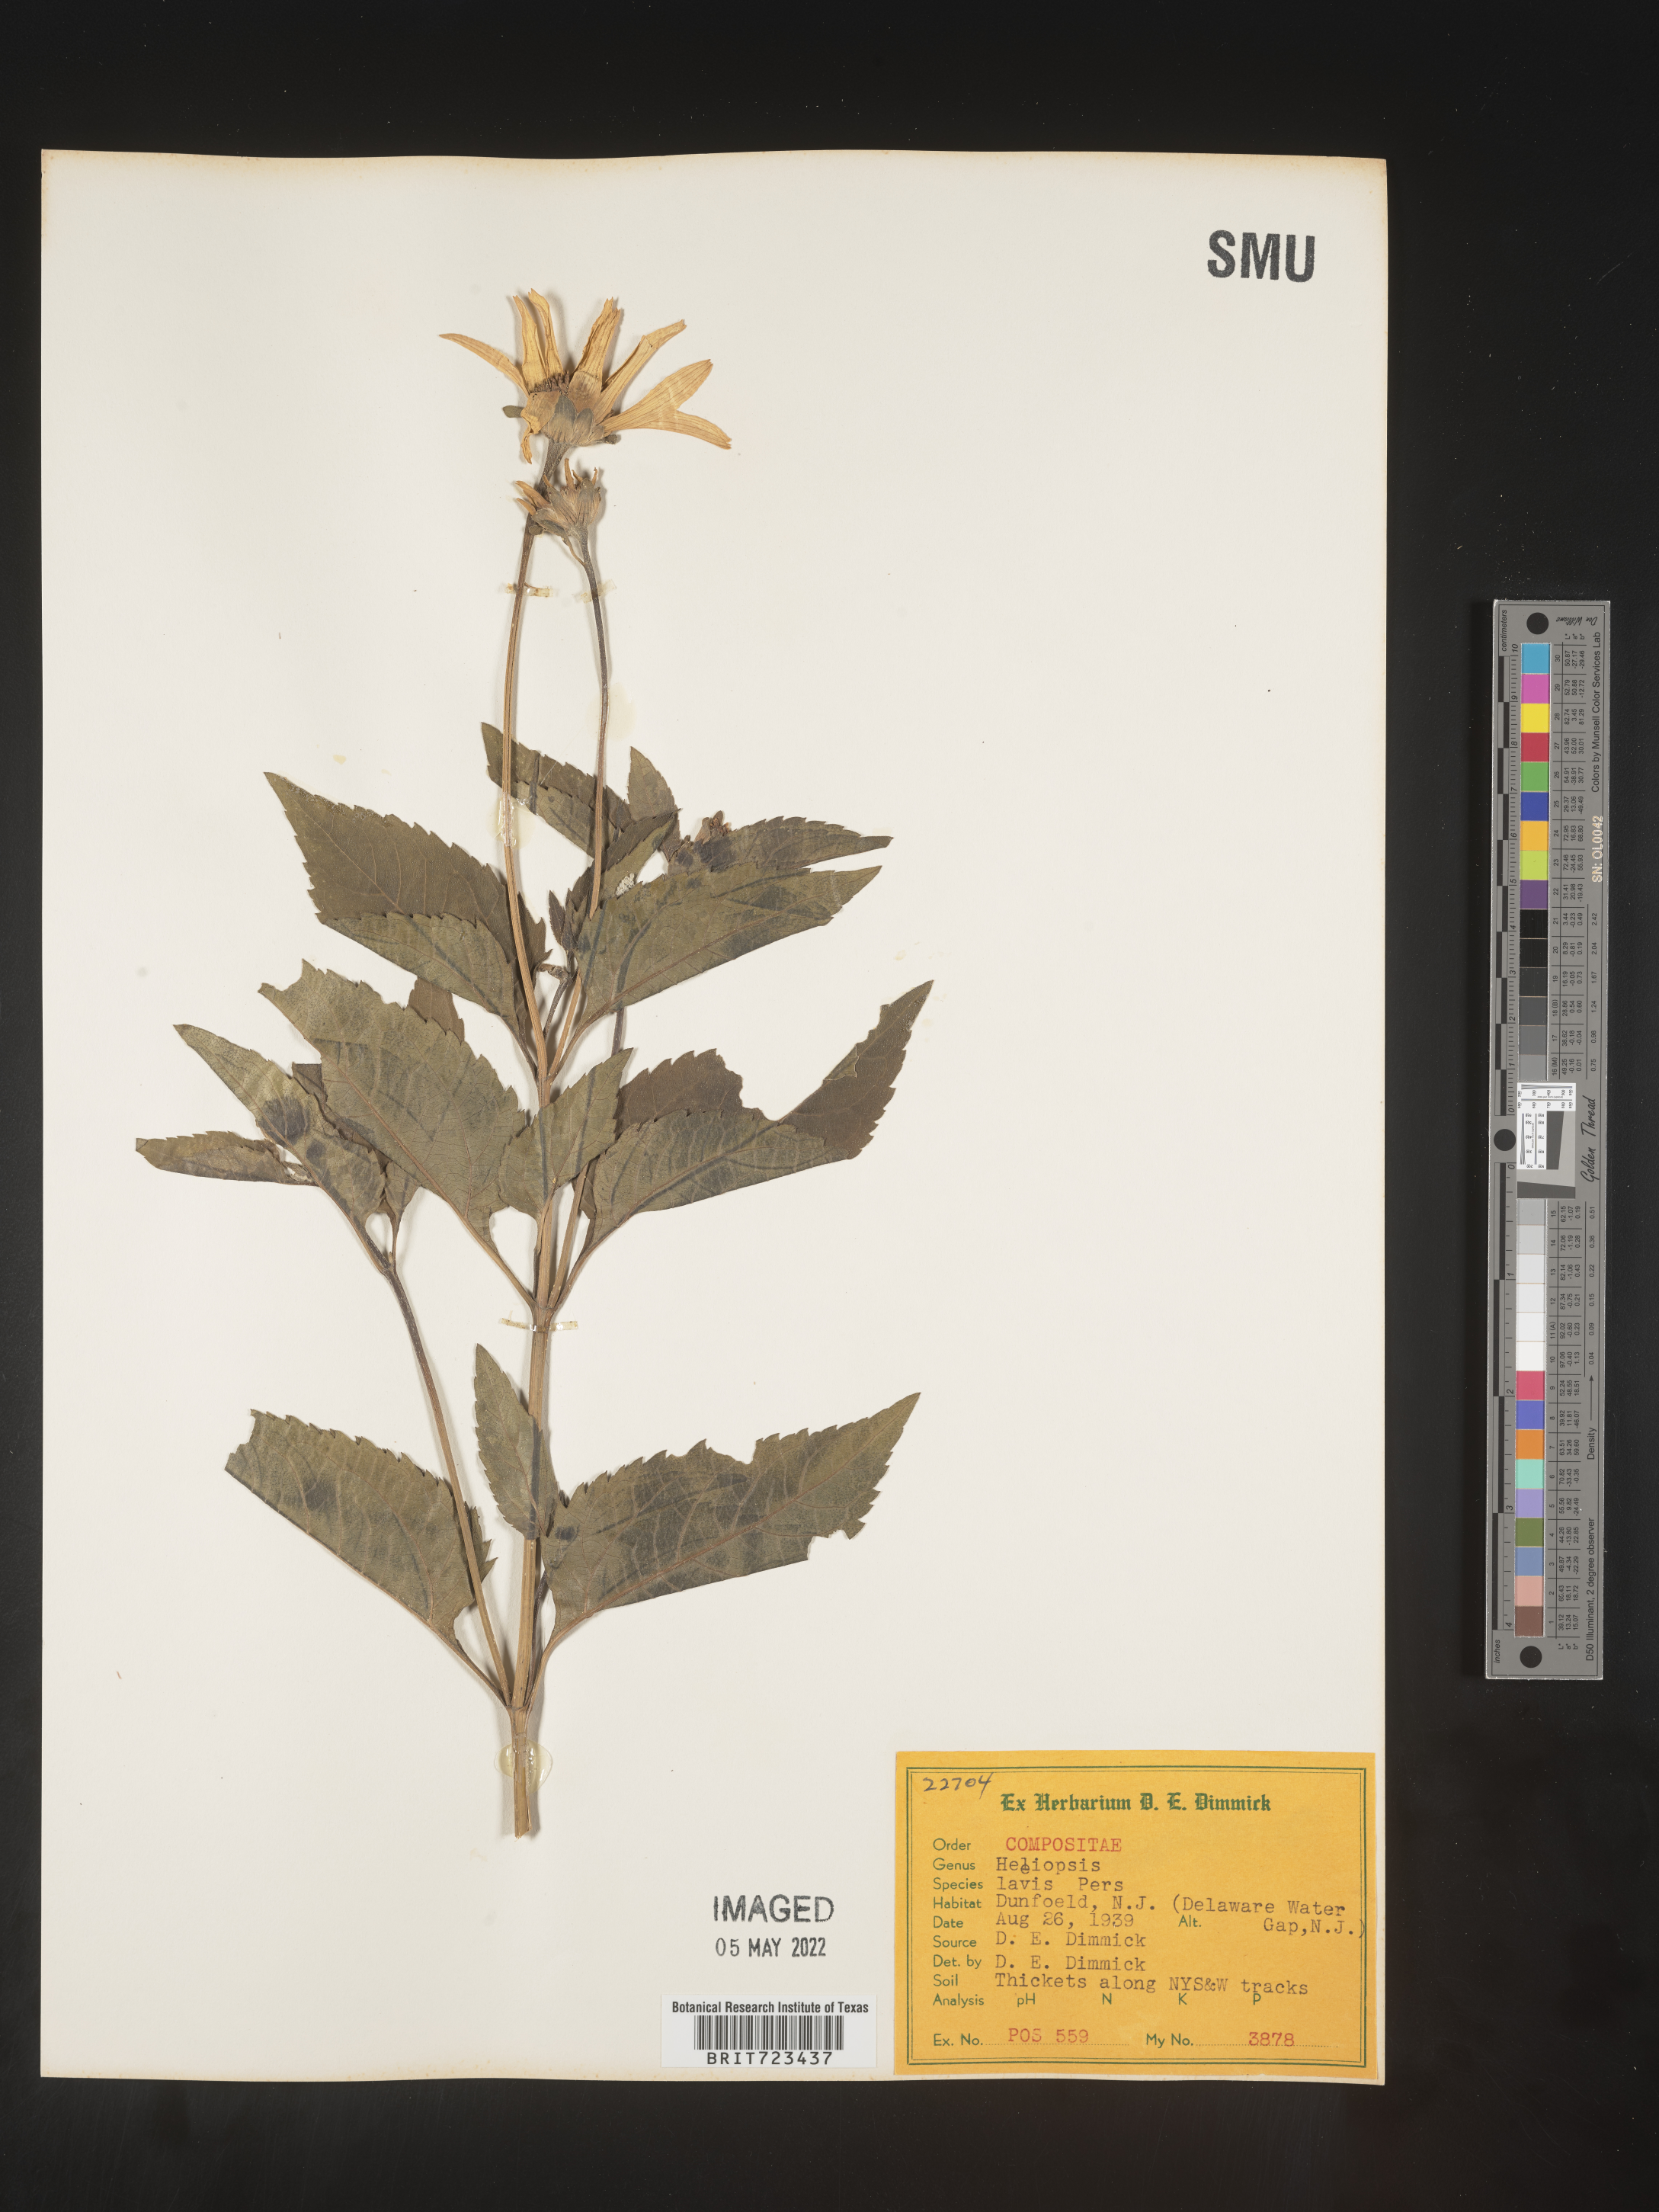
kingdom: Plantae
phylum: Tracheophyta
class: Magnoliopsida
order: Asterales
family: Asteraceae
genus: Heliopsis
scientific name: Heliopsis helianthoides
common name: False sunflower
